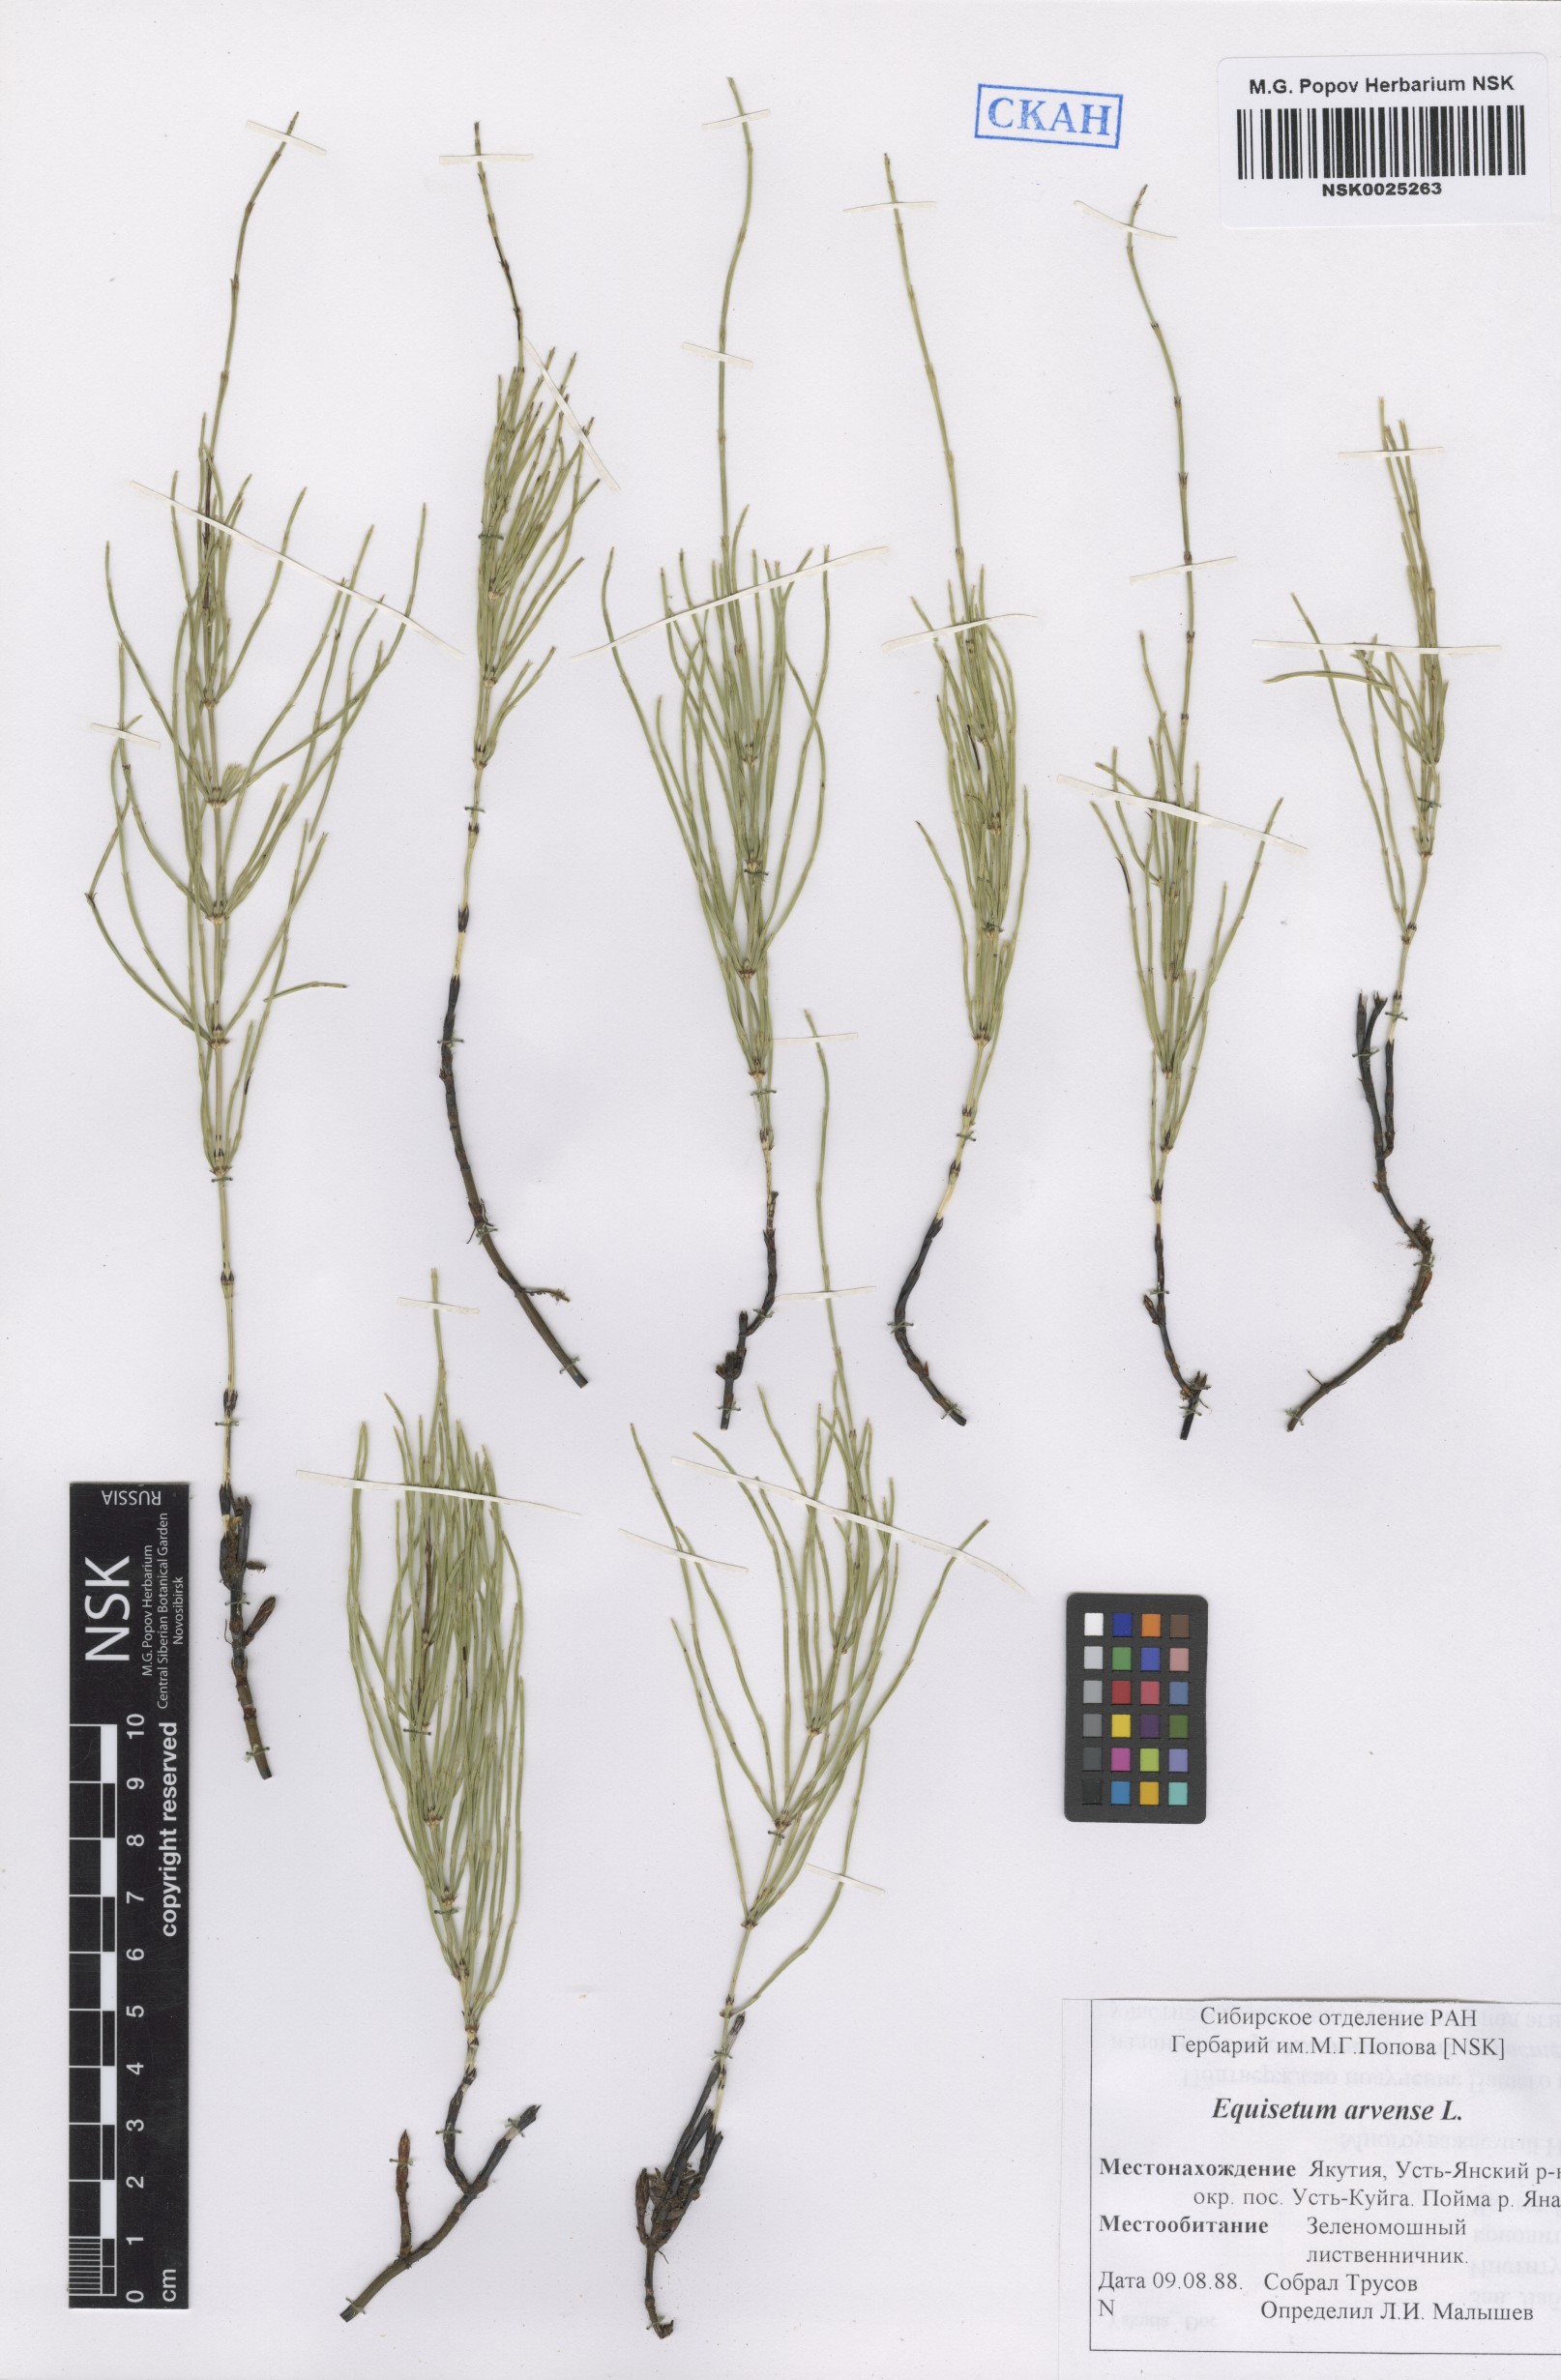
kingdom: Plantae
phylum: Tracheophyta
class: Polypodiopsida
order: Equisetales
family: Equisetaceae
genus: Equisetum
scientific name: Equisetum arvense
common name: Field horsetail
